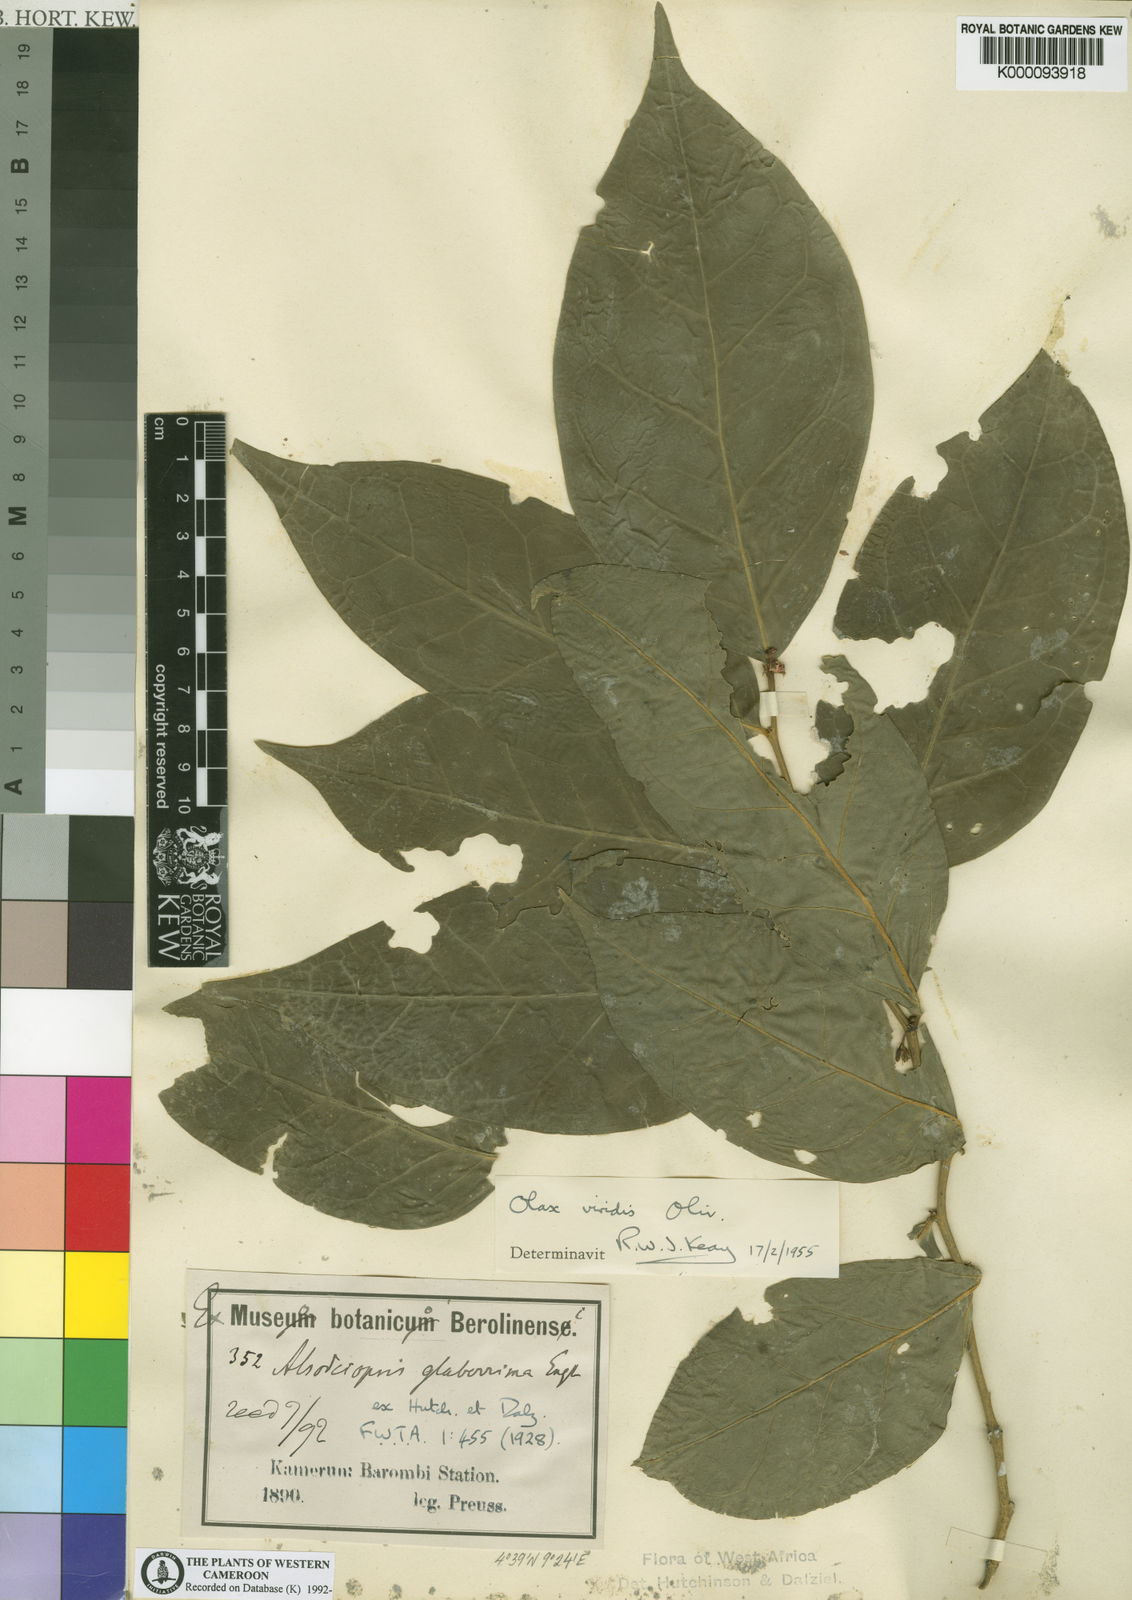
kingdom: Plantae
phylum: Tracheophyta
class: Magnoliopsida
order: Santalales
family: Olacaceae
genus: Olax
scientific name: Olax gambecola
